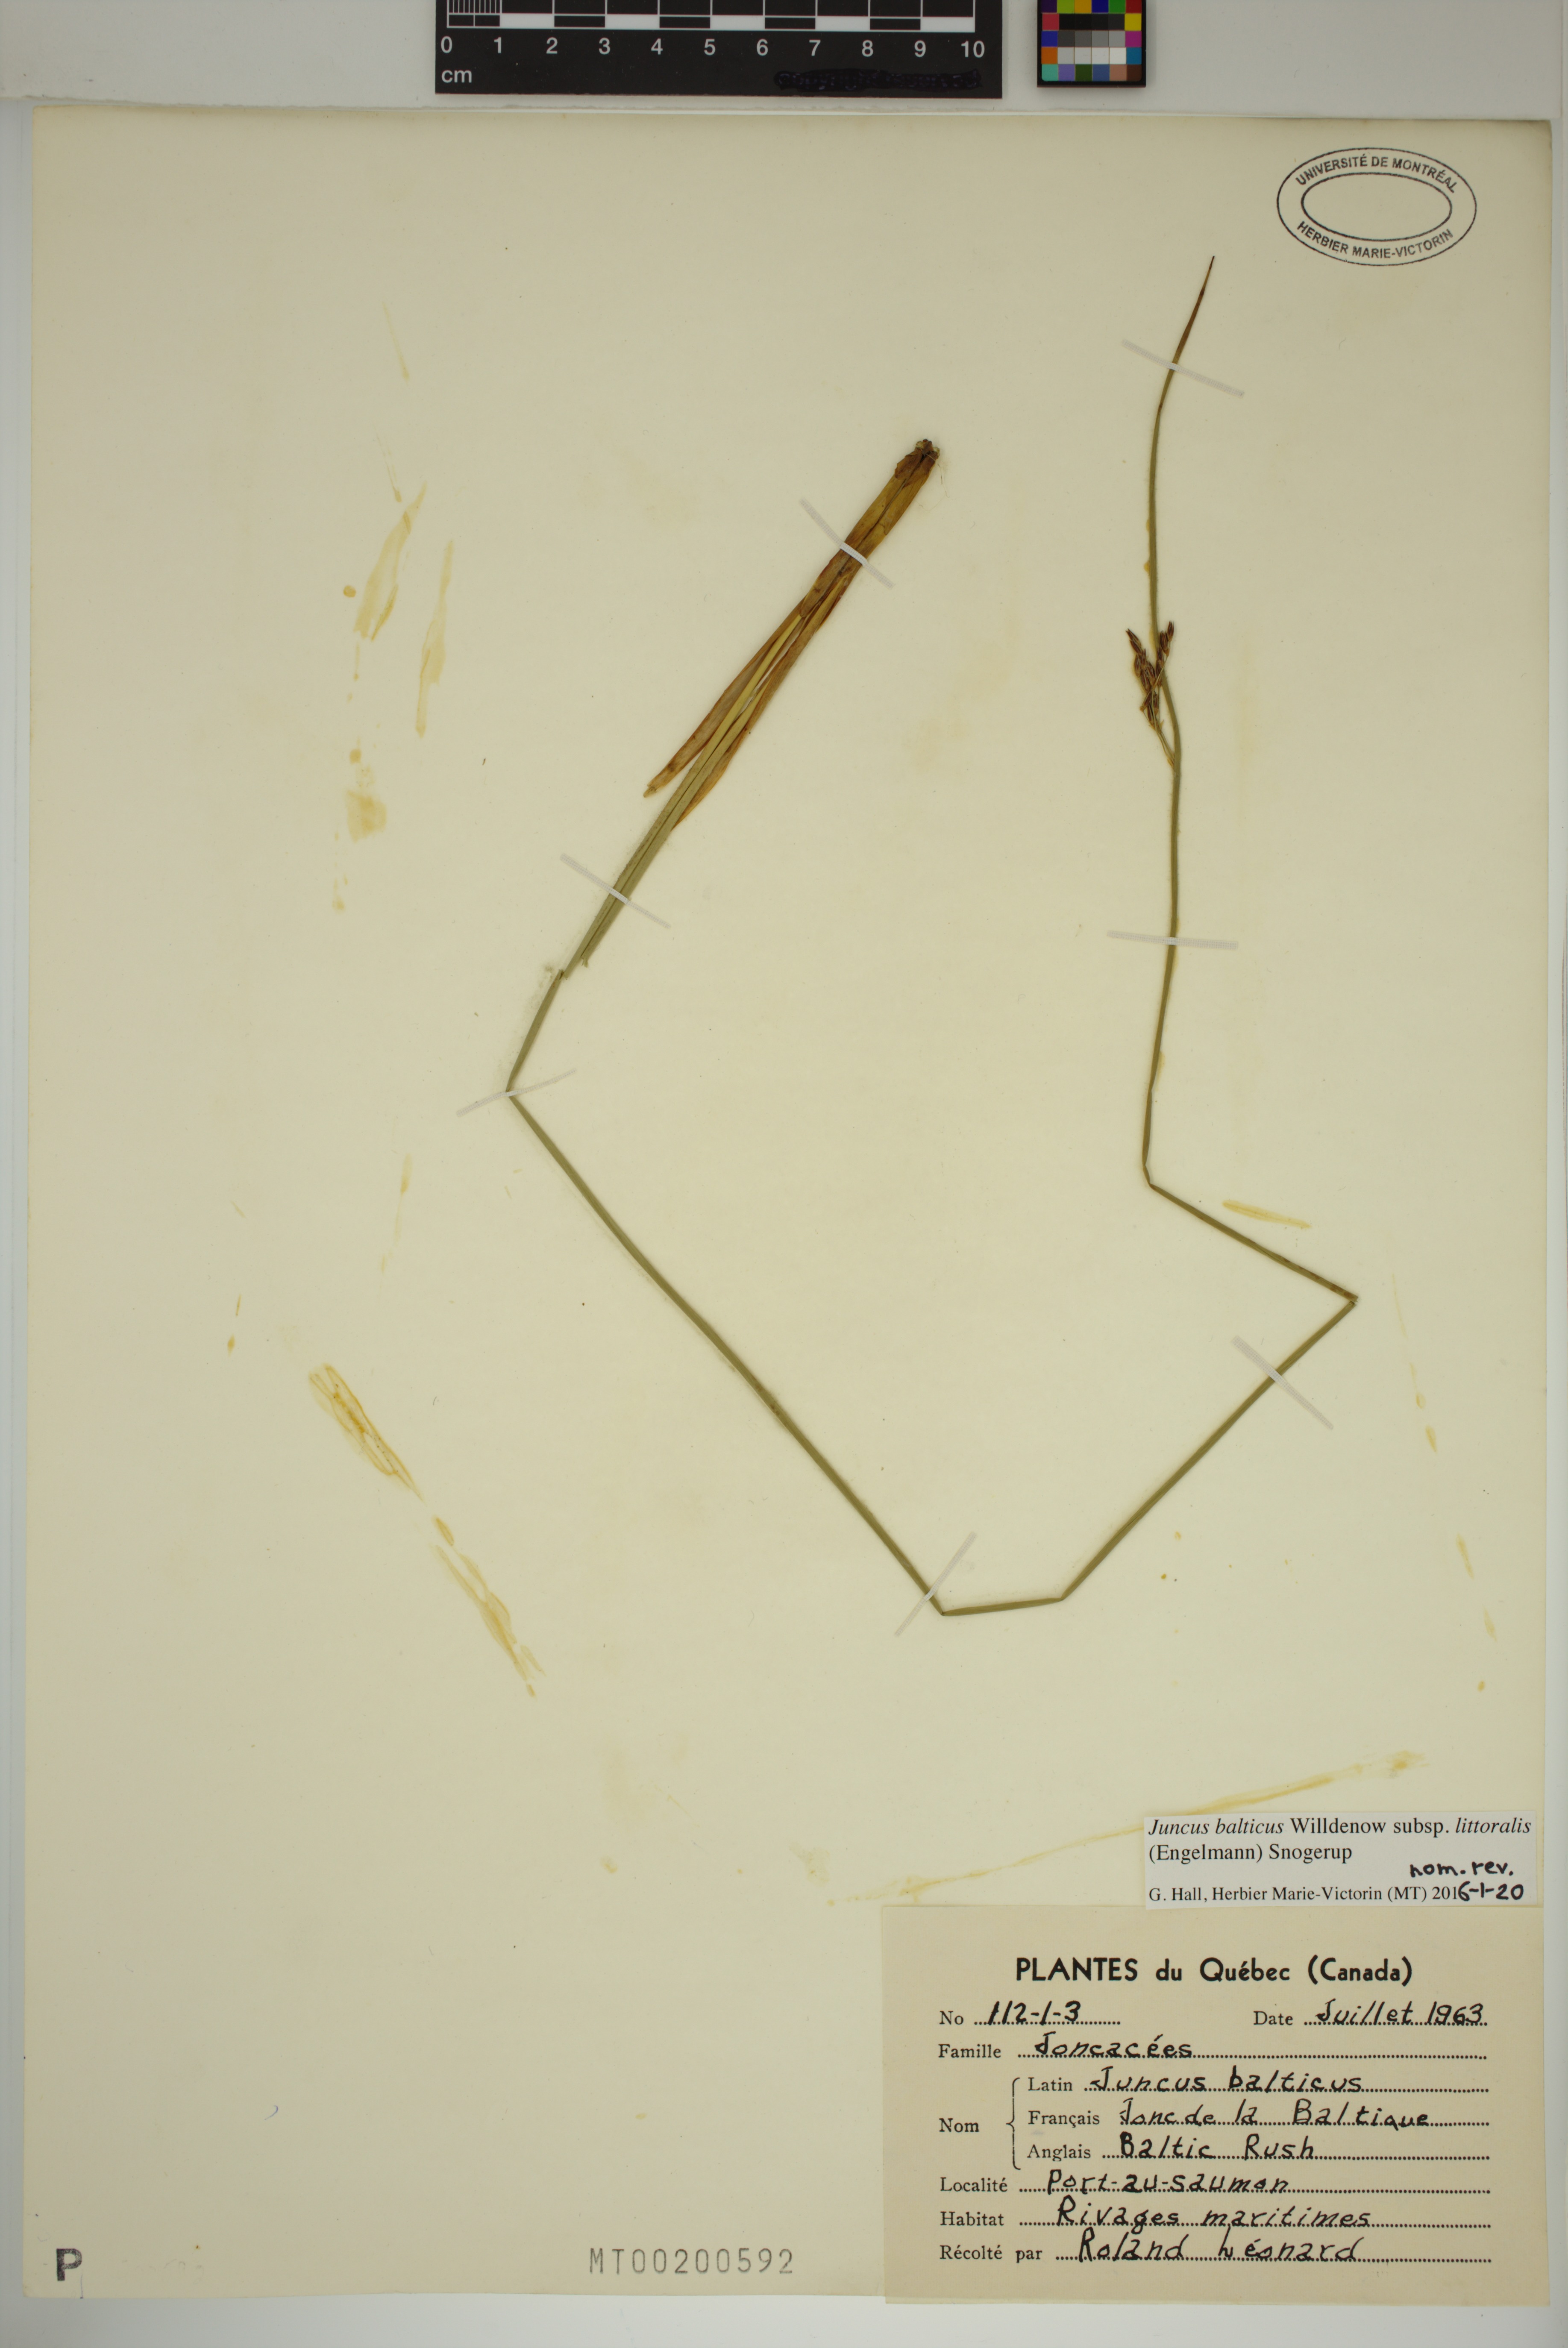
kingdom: Plantae
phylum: Tracheophyta
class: Liliopsida
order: Poales
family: Juncaceae
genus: Juncus
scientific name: Juncus balticus
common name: Baltic rush
